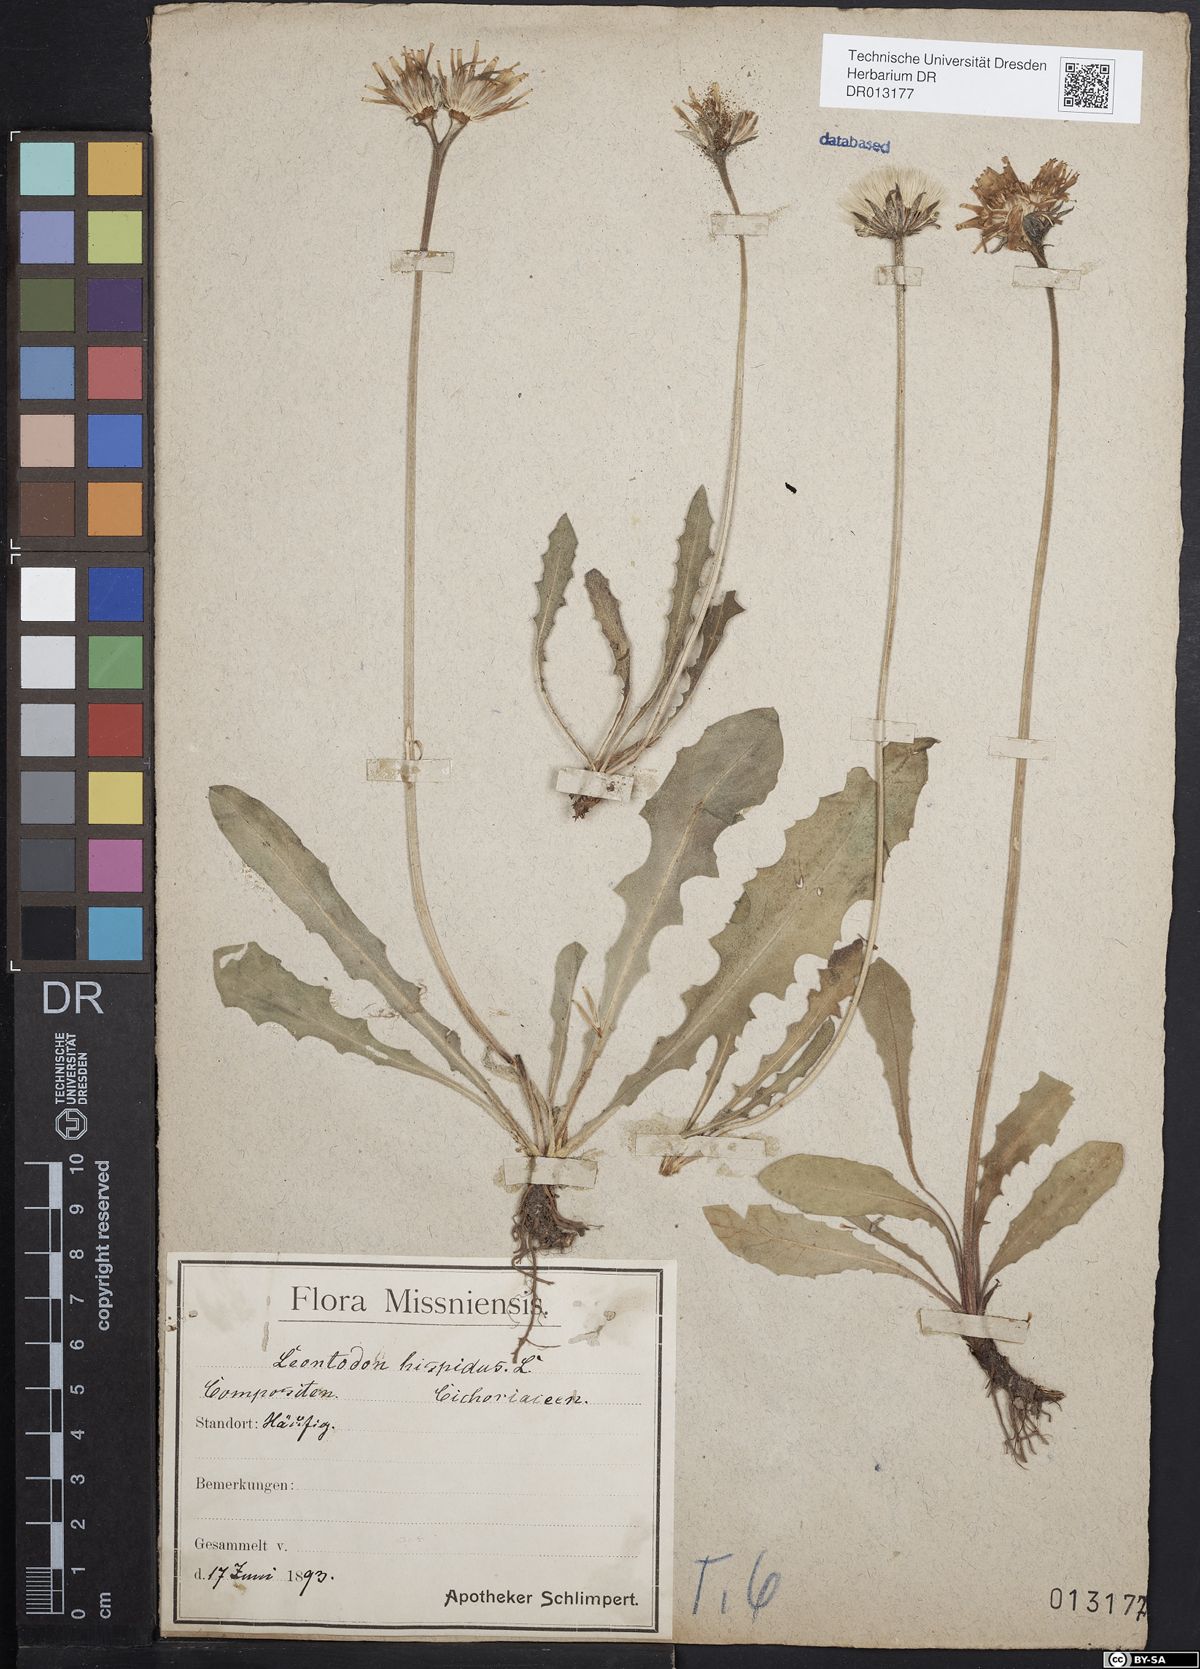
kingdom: Plantae
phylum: Tracheophyta
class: Magnoliopsida
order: Asterales
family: Asteraceae
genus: Leontodon
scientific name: Leontodon hispidus
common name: Rough hawkbit
